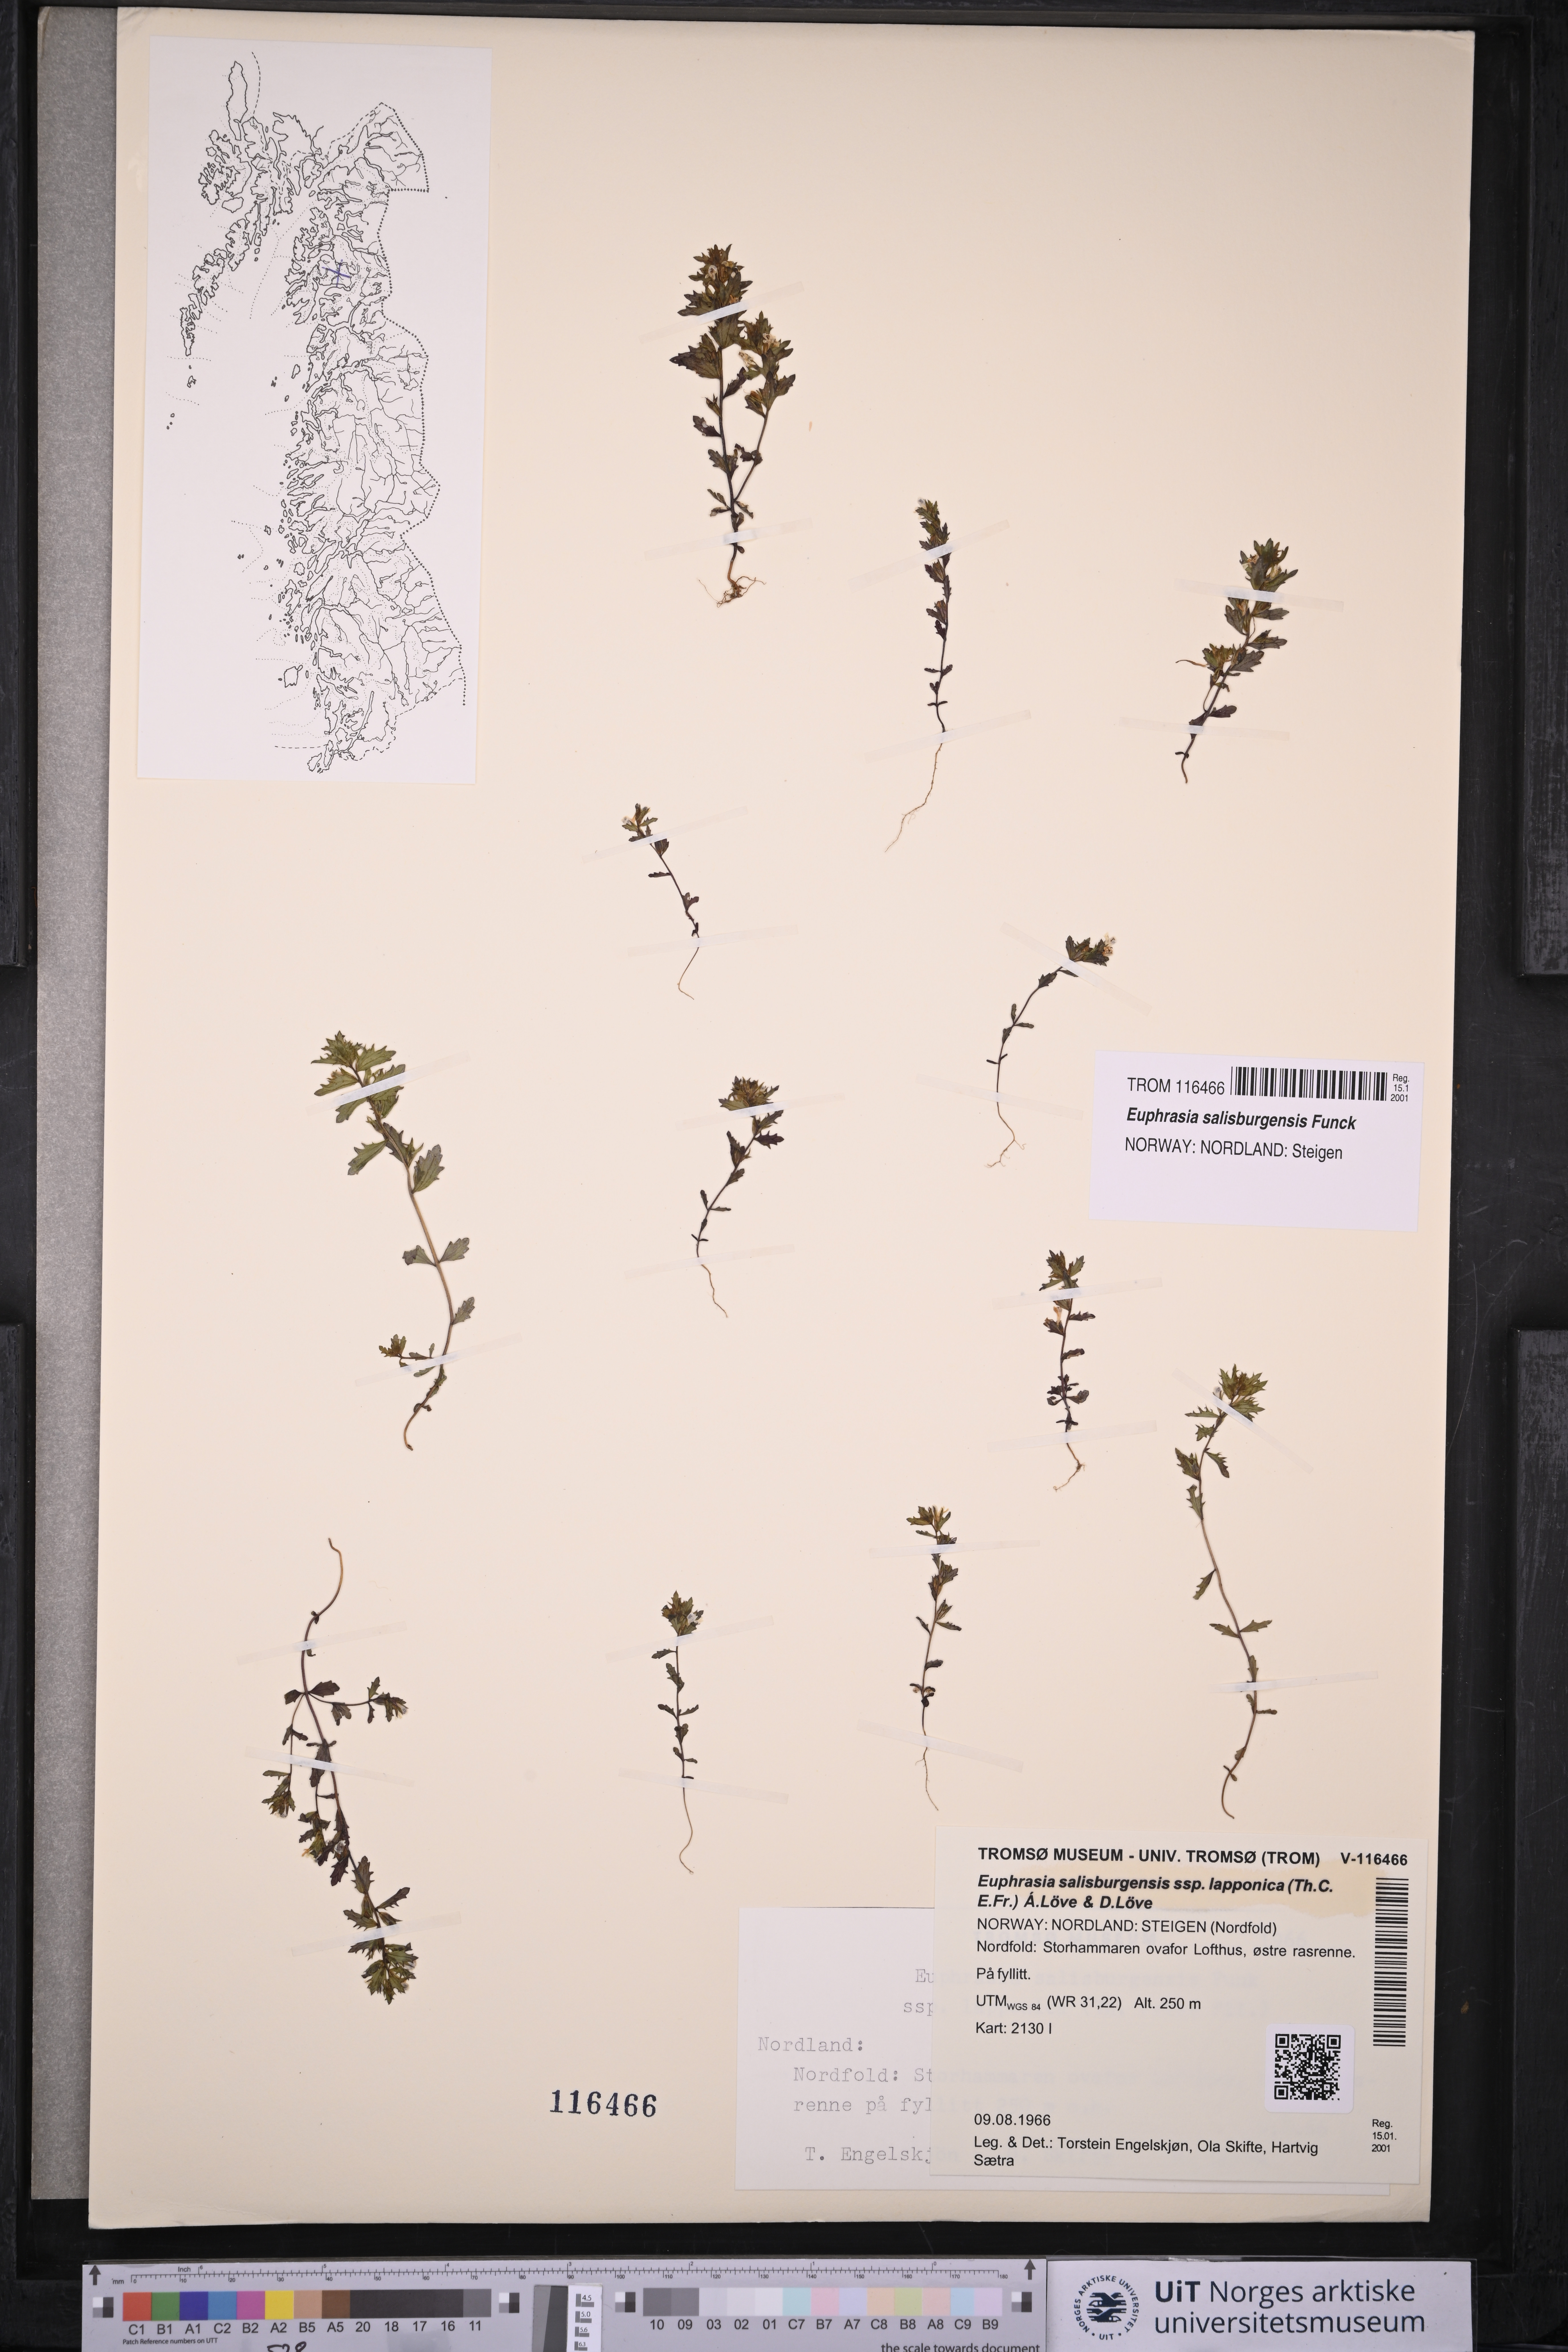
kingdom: Plantae
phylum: Tracheophyta
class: Magnoliopsida
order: Lamiales
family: Orobanchaceae
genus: Euphrasia
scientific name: Euphrasia salisburgensis
